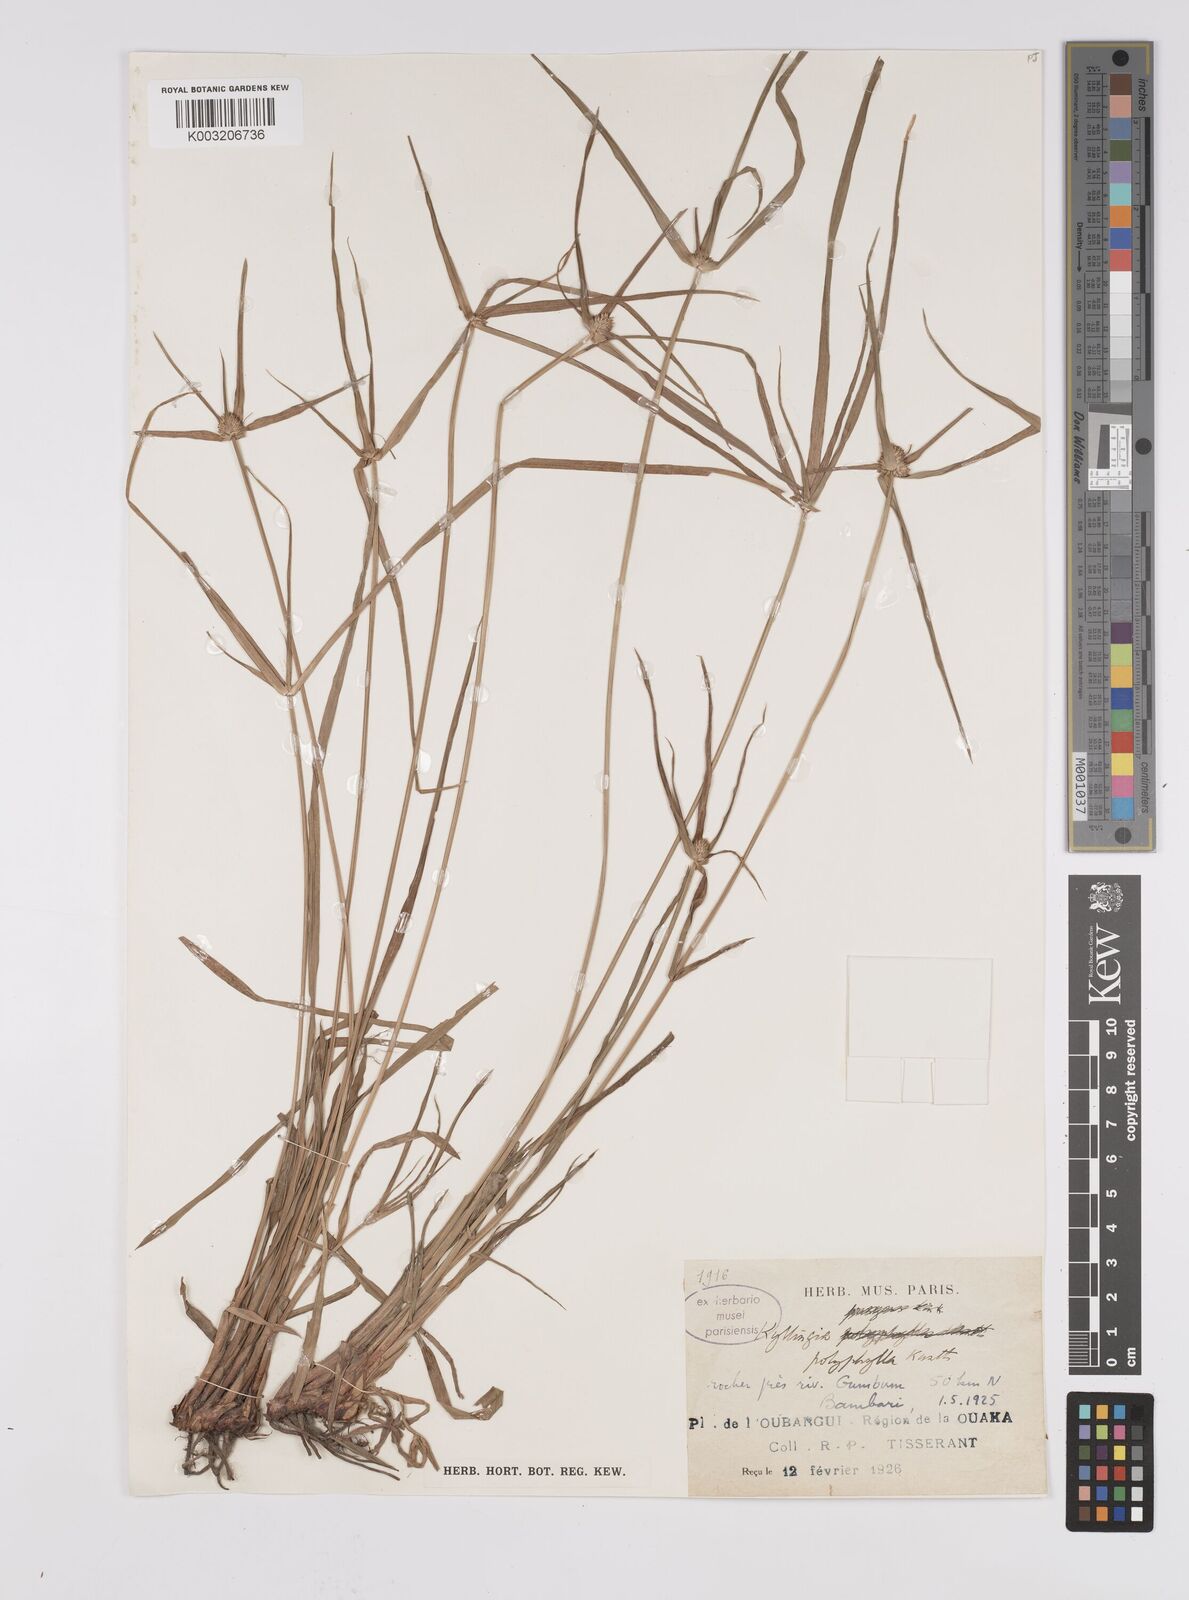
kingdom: Plantae
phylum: Tracheophyta
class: Liliopsida
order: Poales
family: Cyperaceae
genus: Cyperus
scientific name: Cyperus
